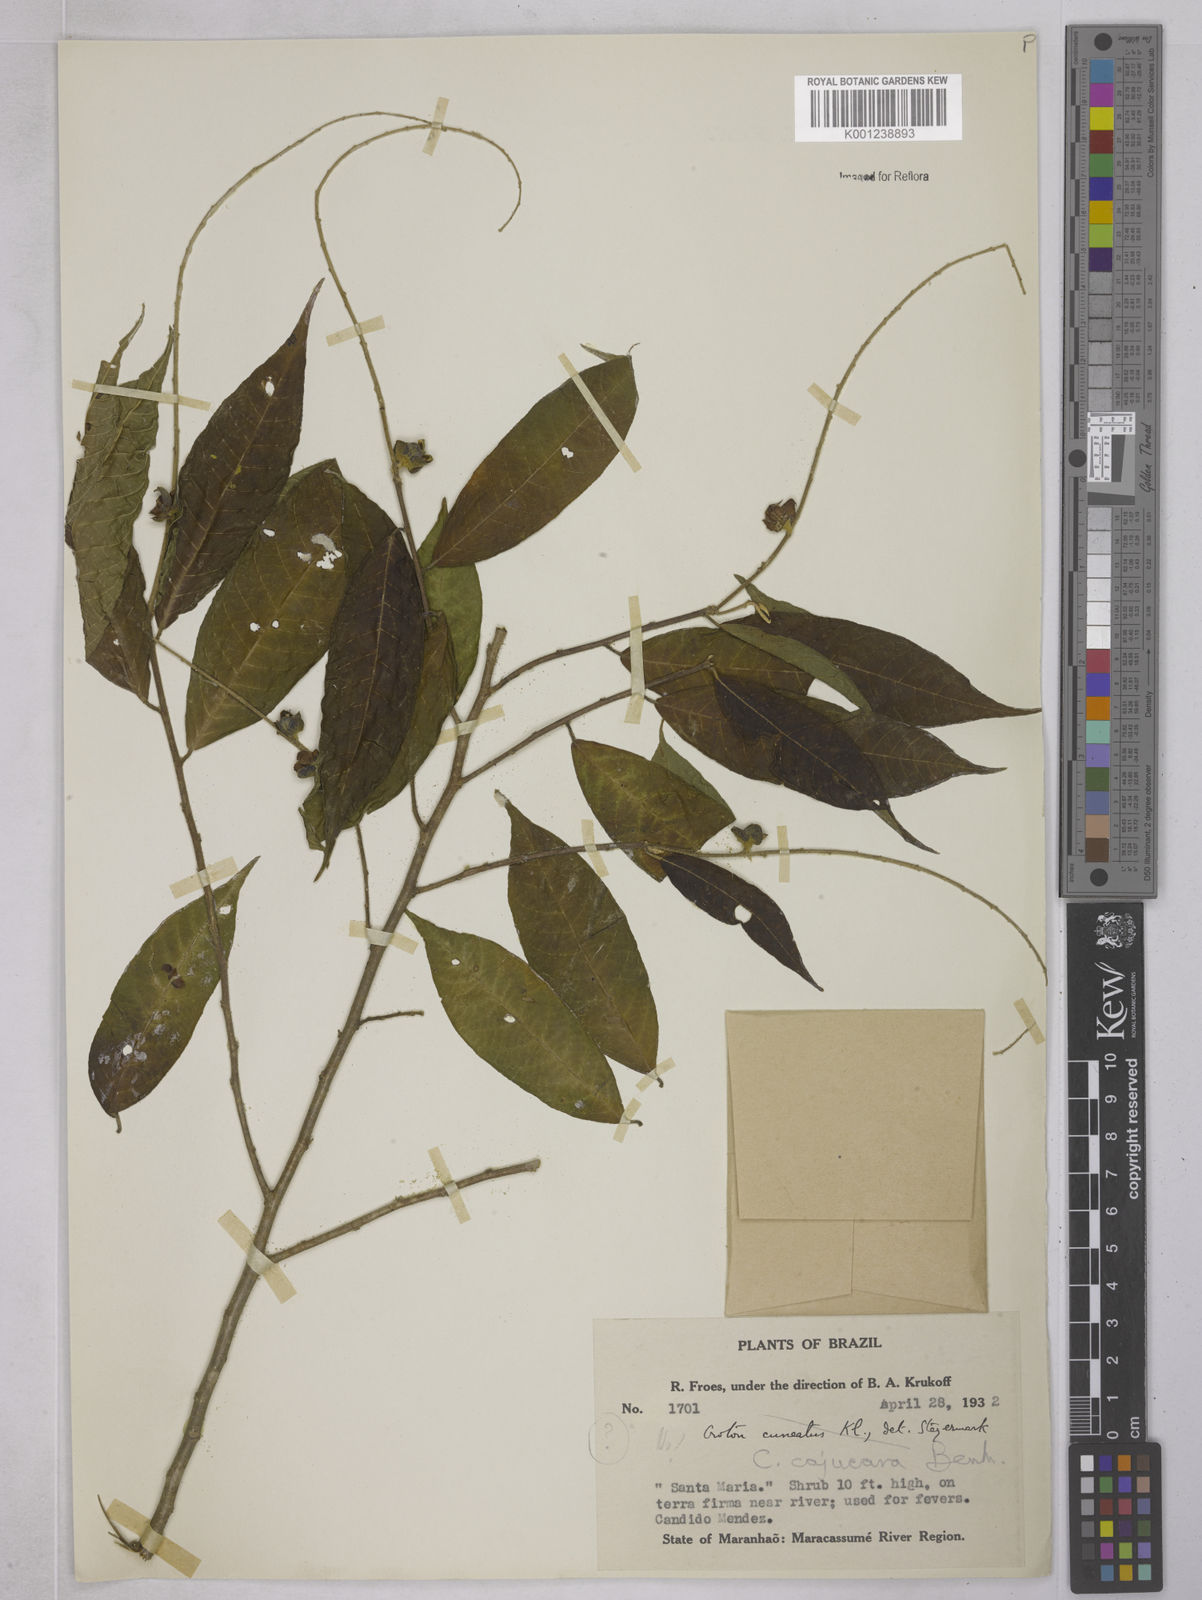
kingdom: Plantae
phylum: Tracheophyta
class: Magnoliopsida
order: Malpighiales
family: Euphorbiaceae
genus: Croton
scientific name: Croton cajucara
